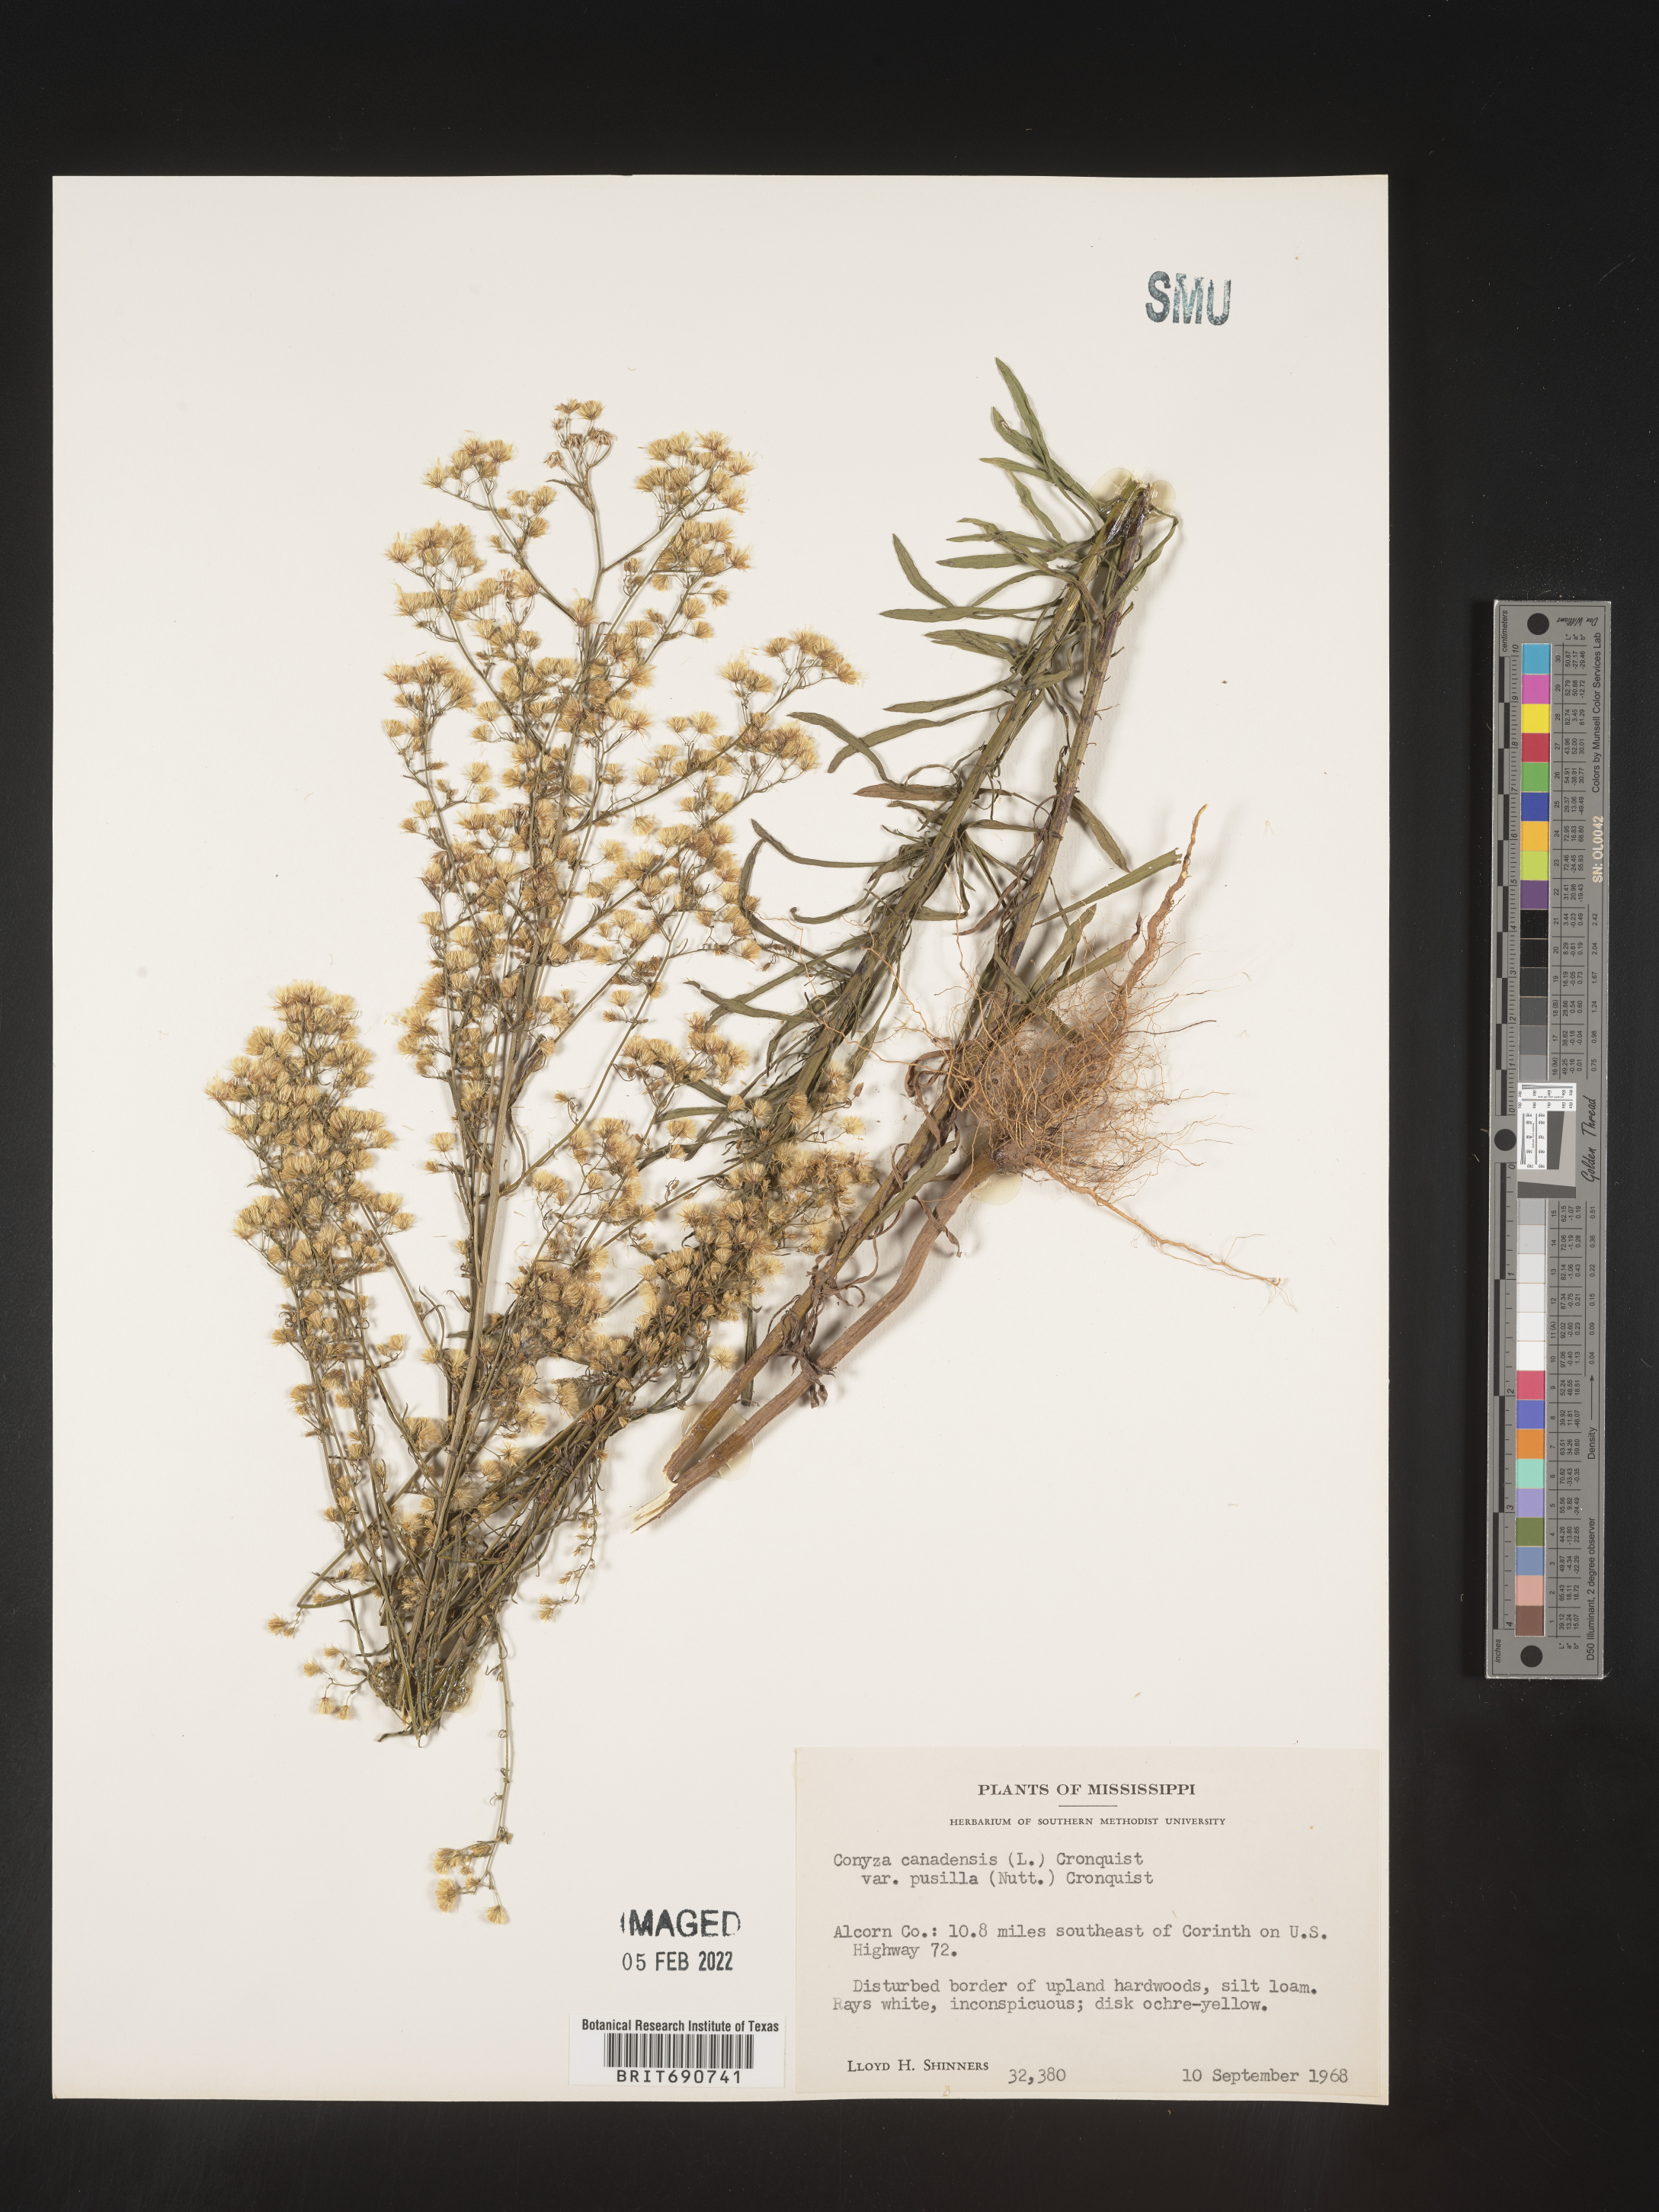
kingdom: Plantae
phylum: Tracheophyta
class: Magnoliopsida
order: Asterales
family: Asteraceae
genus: Erigeron
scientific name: Erigeron canadensis
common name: Canadian fleabane
